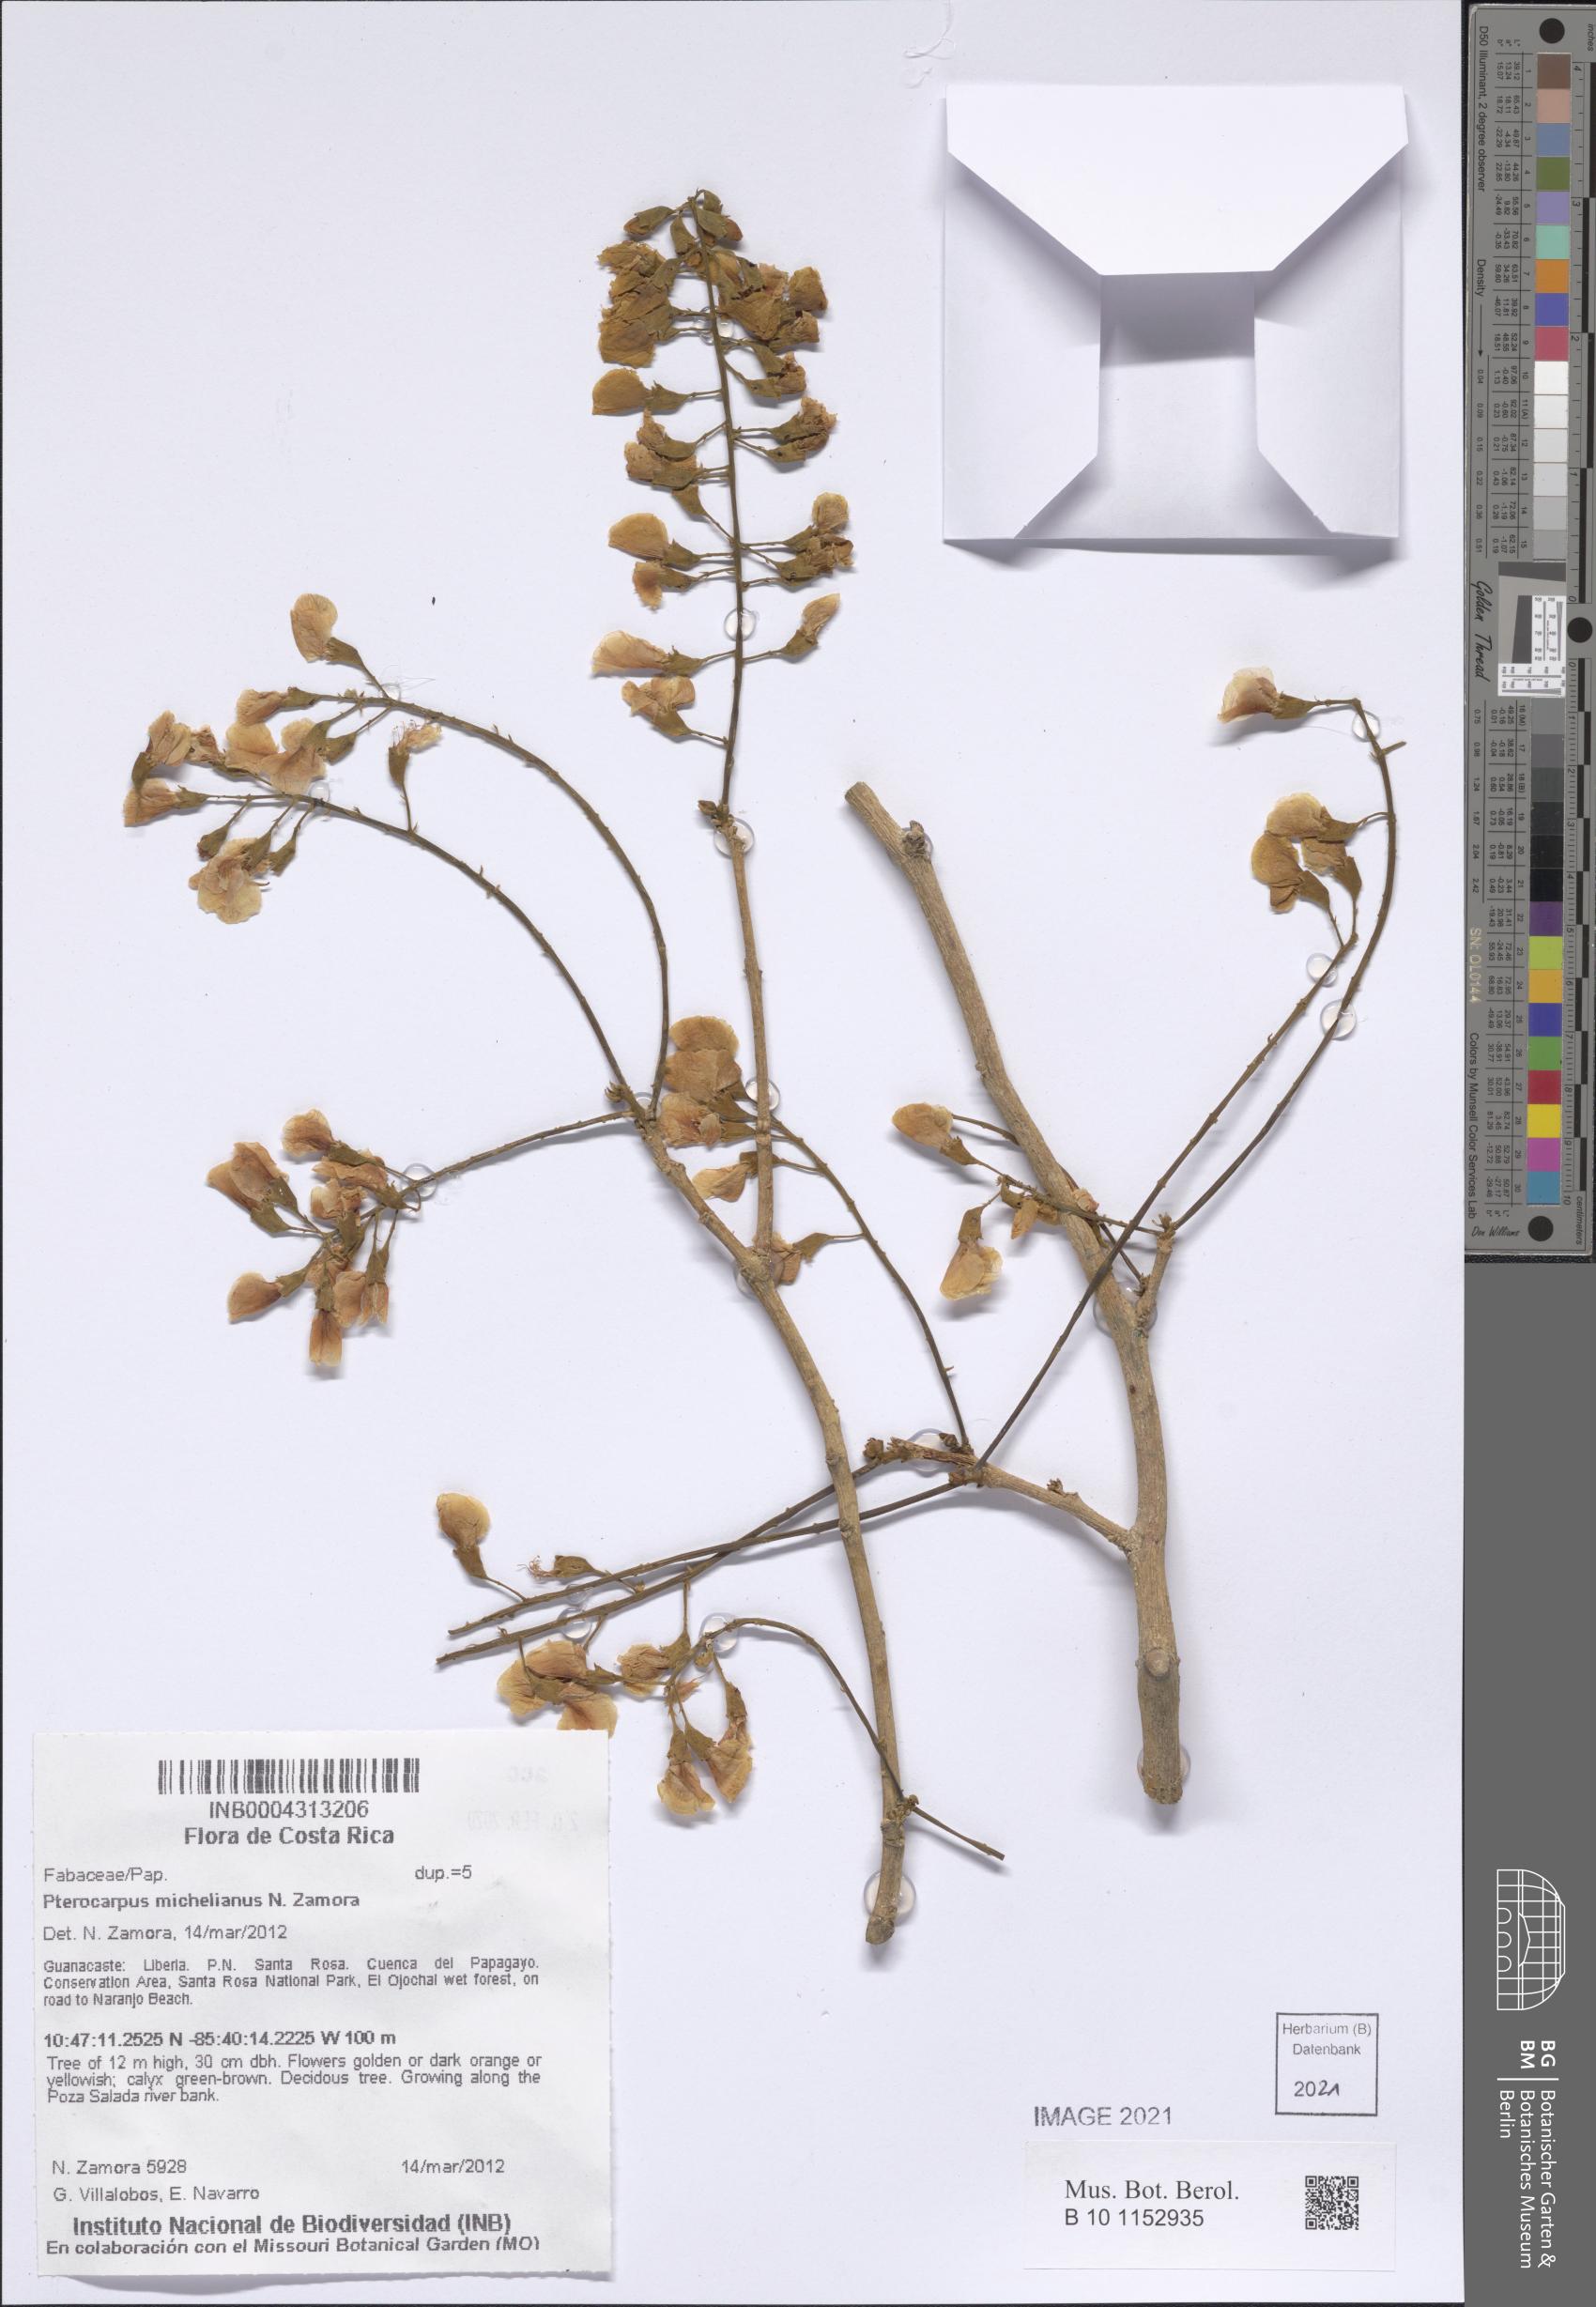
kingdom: Plantae
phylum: Tracheophyta
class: Magnoliopsida
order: Fabales
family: Fabaceae
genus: Pterocarpus
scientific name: Pterocarpus michelianus
